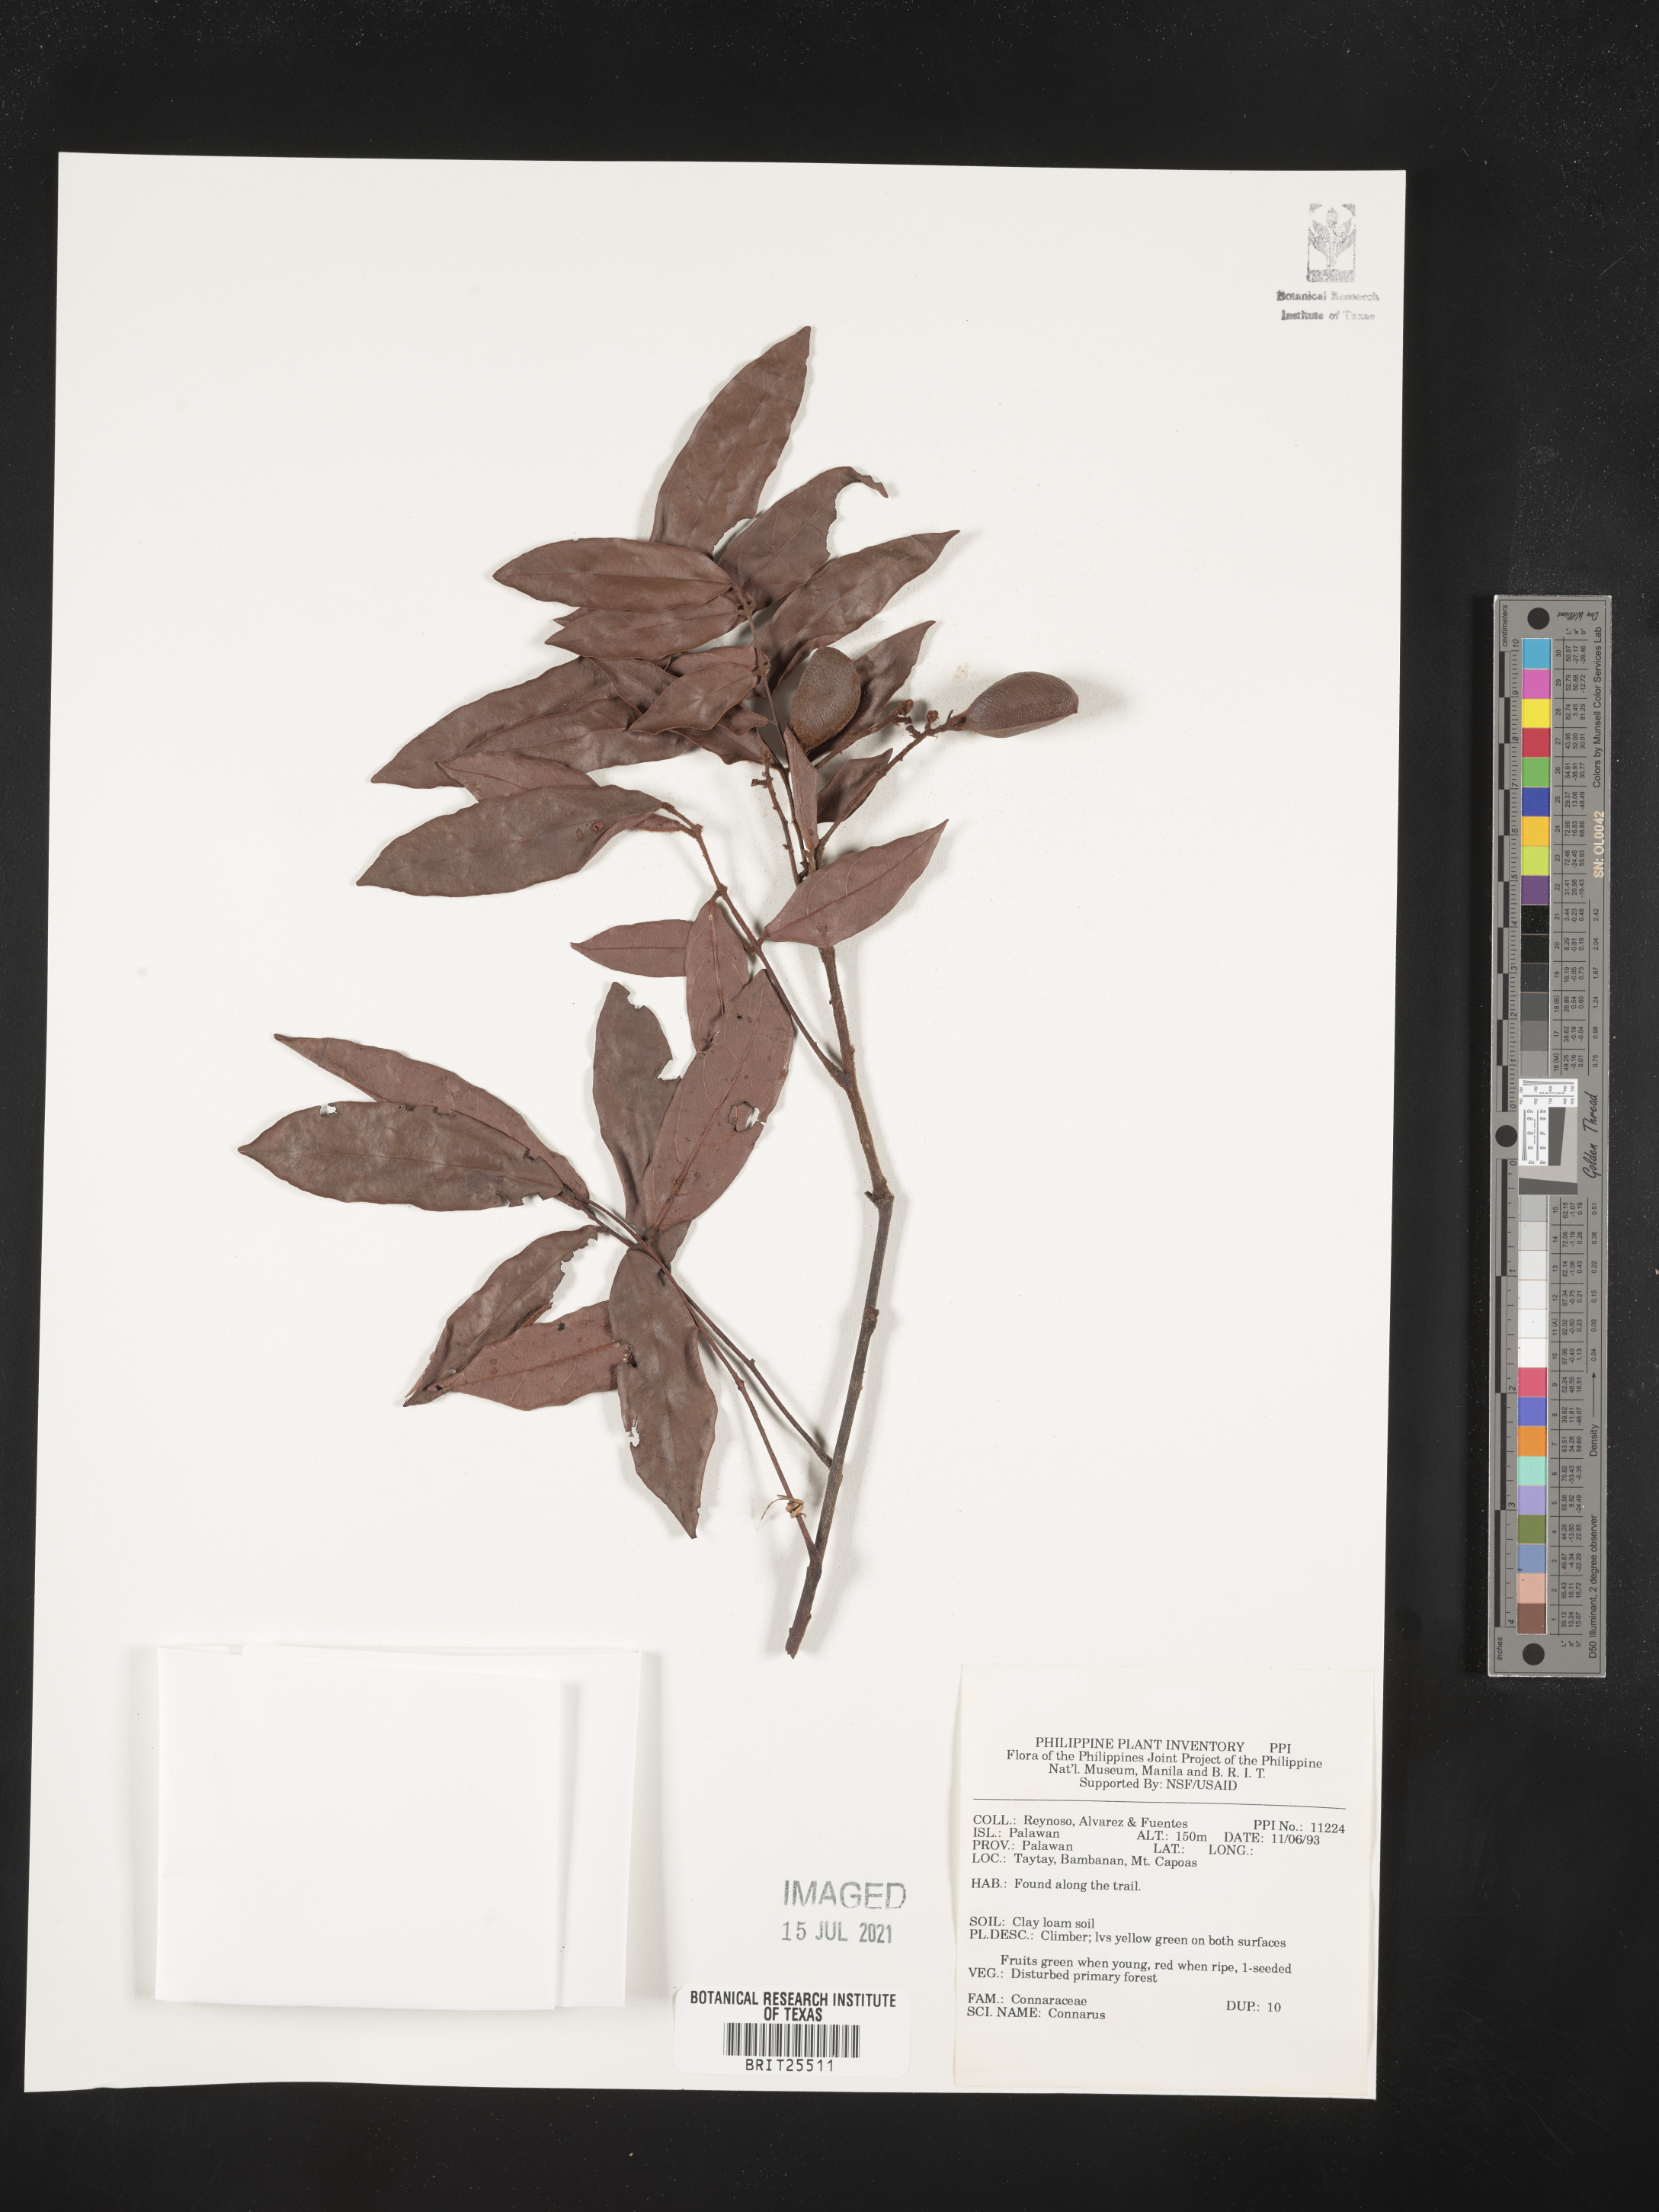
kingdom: Plantae
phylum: Tracheophyta
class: Magnoliopsida
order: Oxalidales
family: Connaraceae
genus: Connarus
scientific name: Connarus
